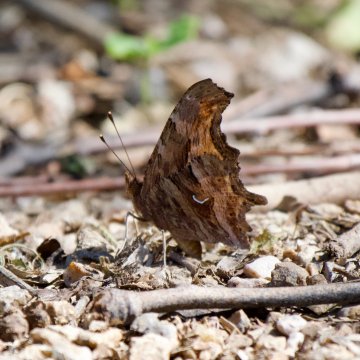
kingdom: Animalia
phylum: Arthropoda
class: Insecta
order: Lepidoptera
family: Nymphalidae
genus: Polygonia
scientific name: Polygonia satyrus
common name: Satyr Comma
